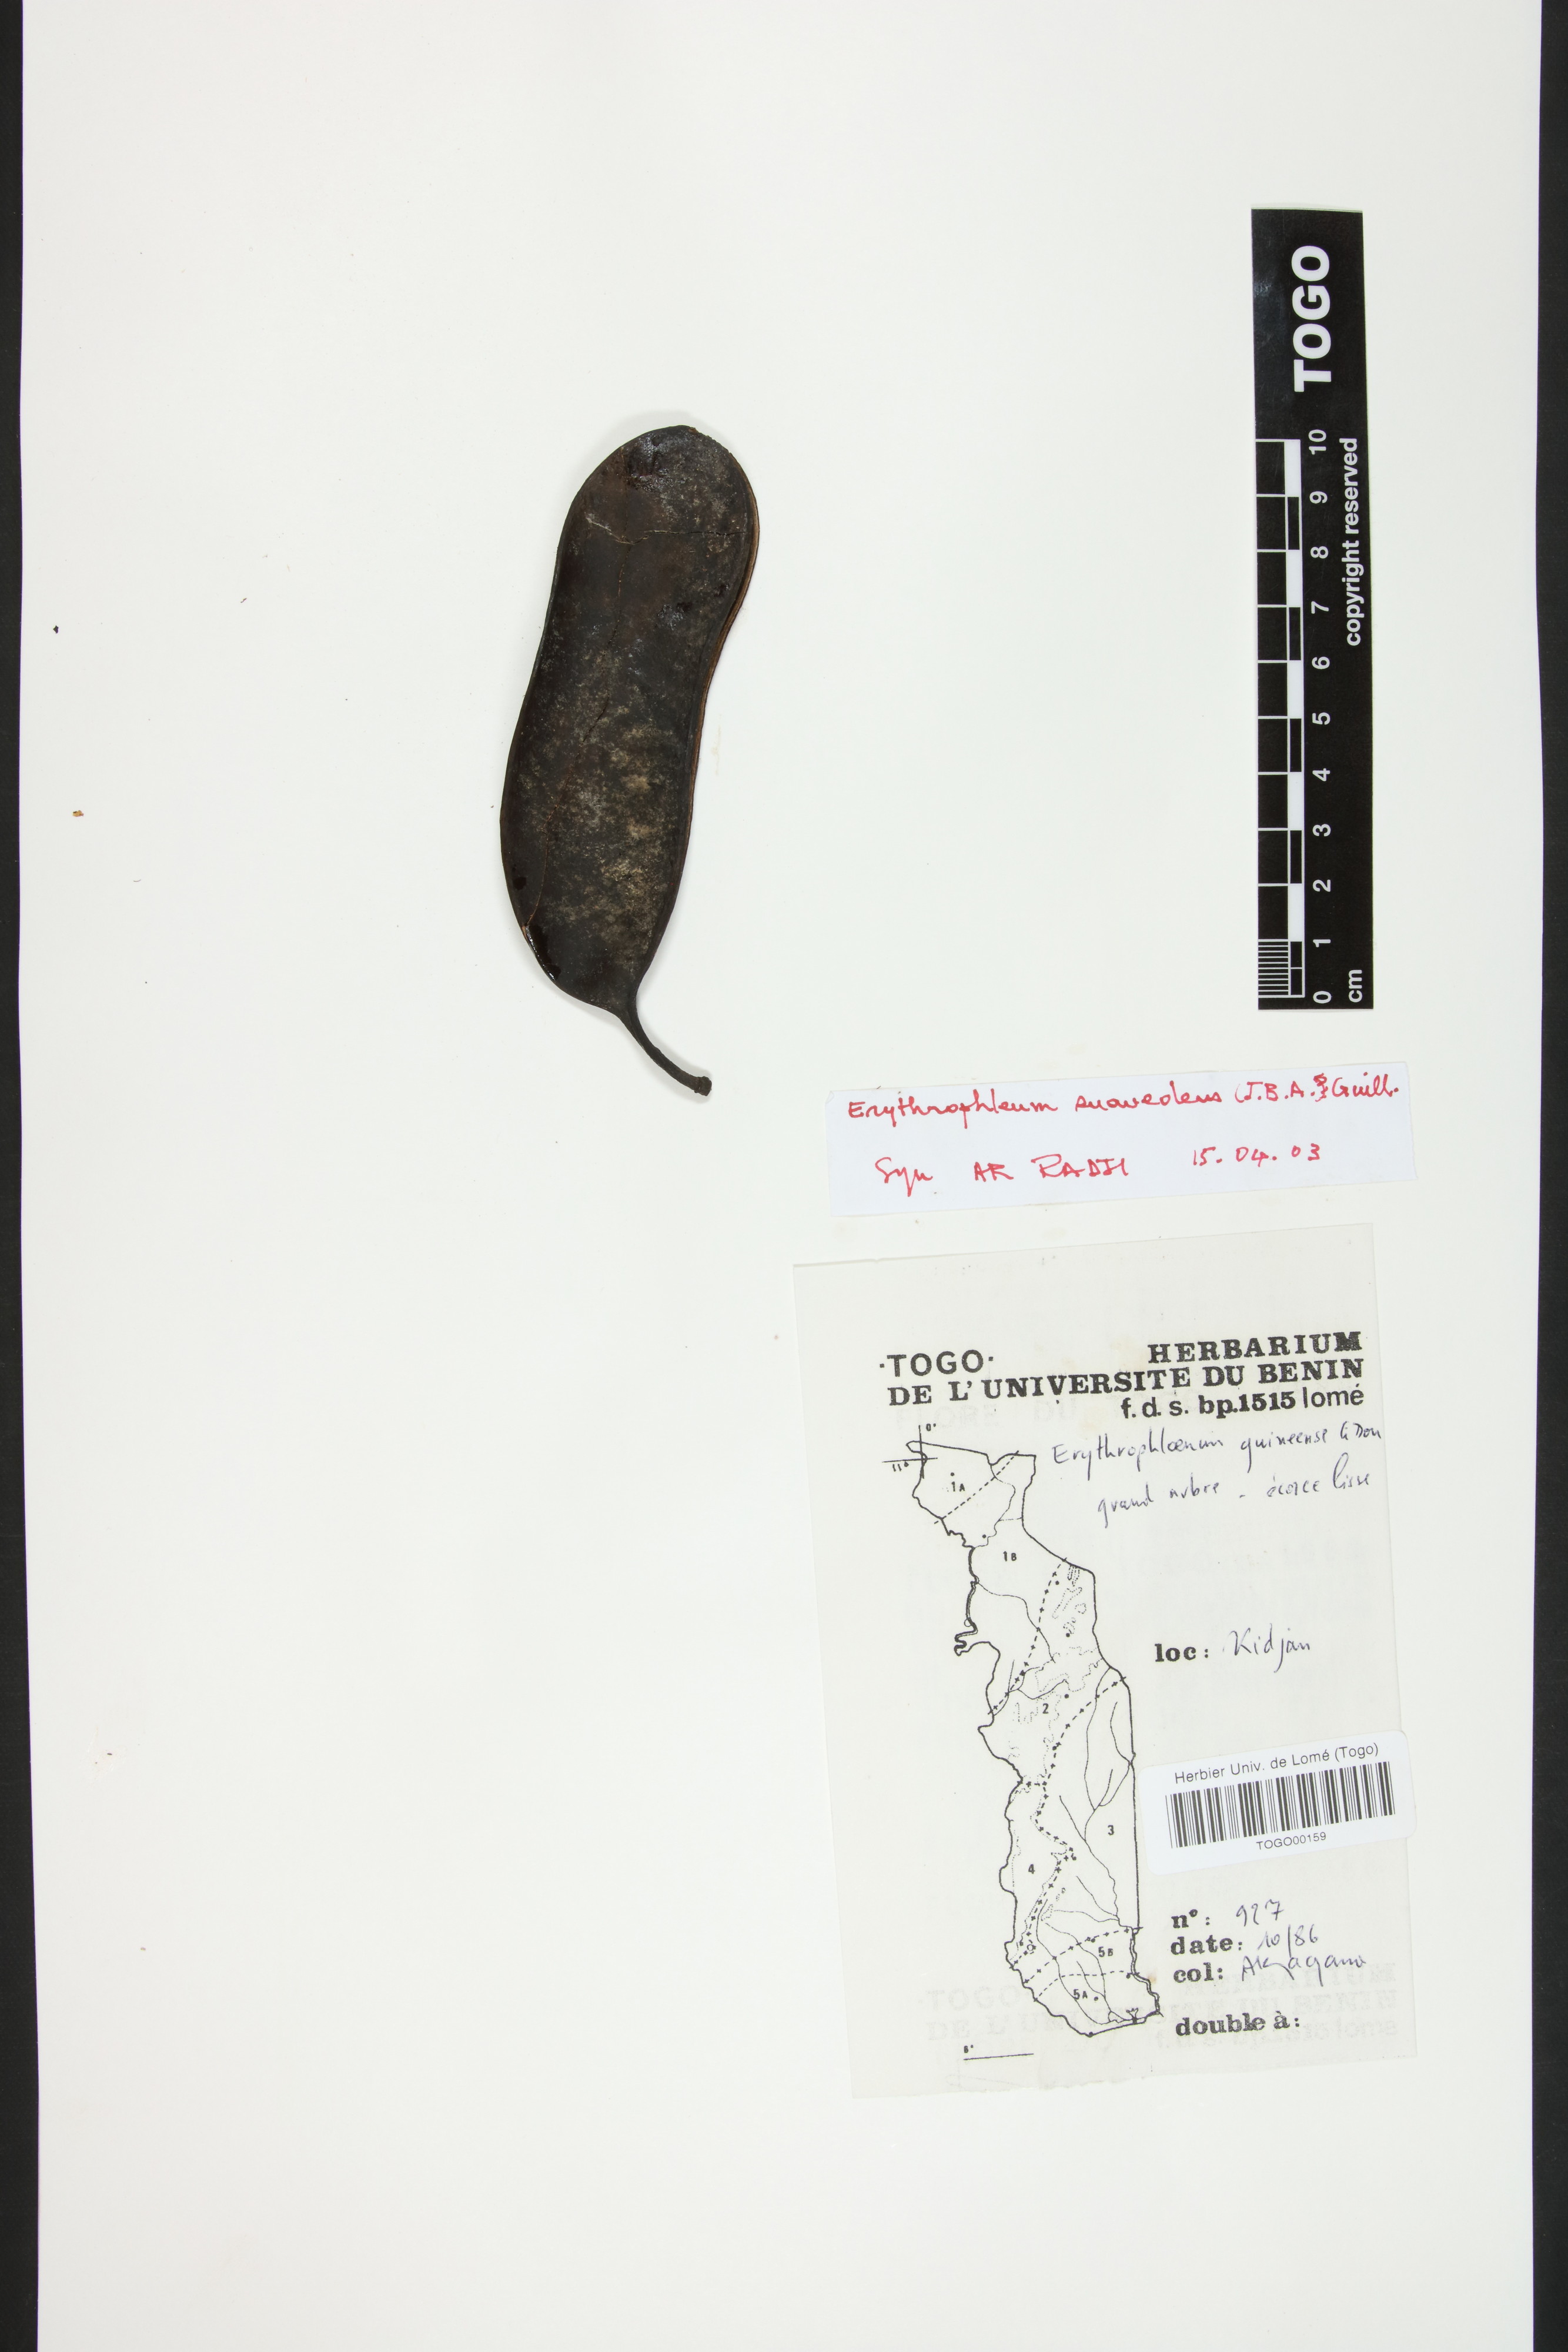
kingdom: Plantae
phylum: Tracheophyta
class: Magnoliopsida
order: Fabales
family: Fabaceae
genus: Erythrophleum
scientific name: Erythrophleum suaveolens
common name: Ordeal tree
